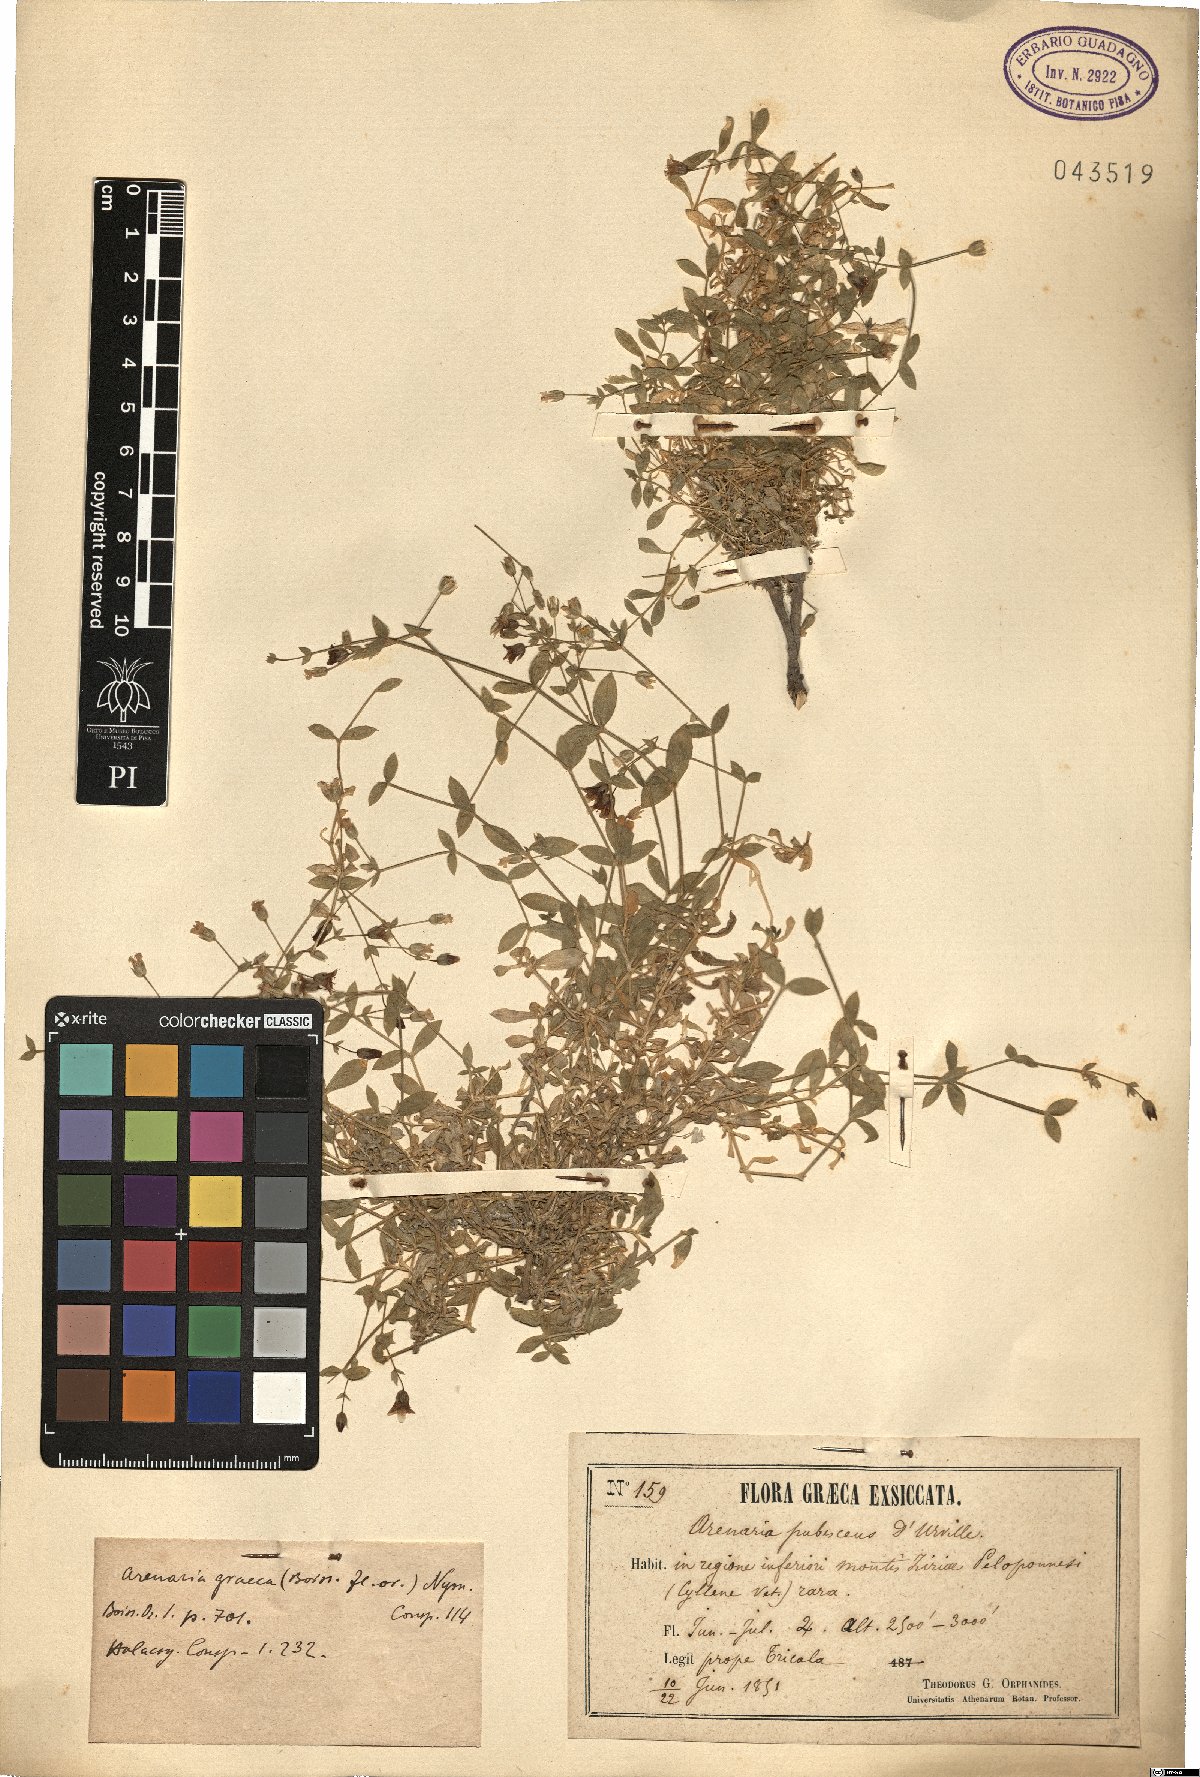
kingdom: Plantae
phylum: Tracheophyta
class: Magnoliopsida
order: Caryophyllales
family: Caryophyllaceae
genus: Arenaria
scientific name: Arenaria filicaulis
